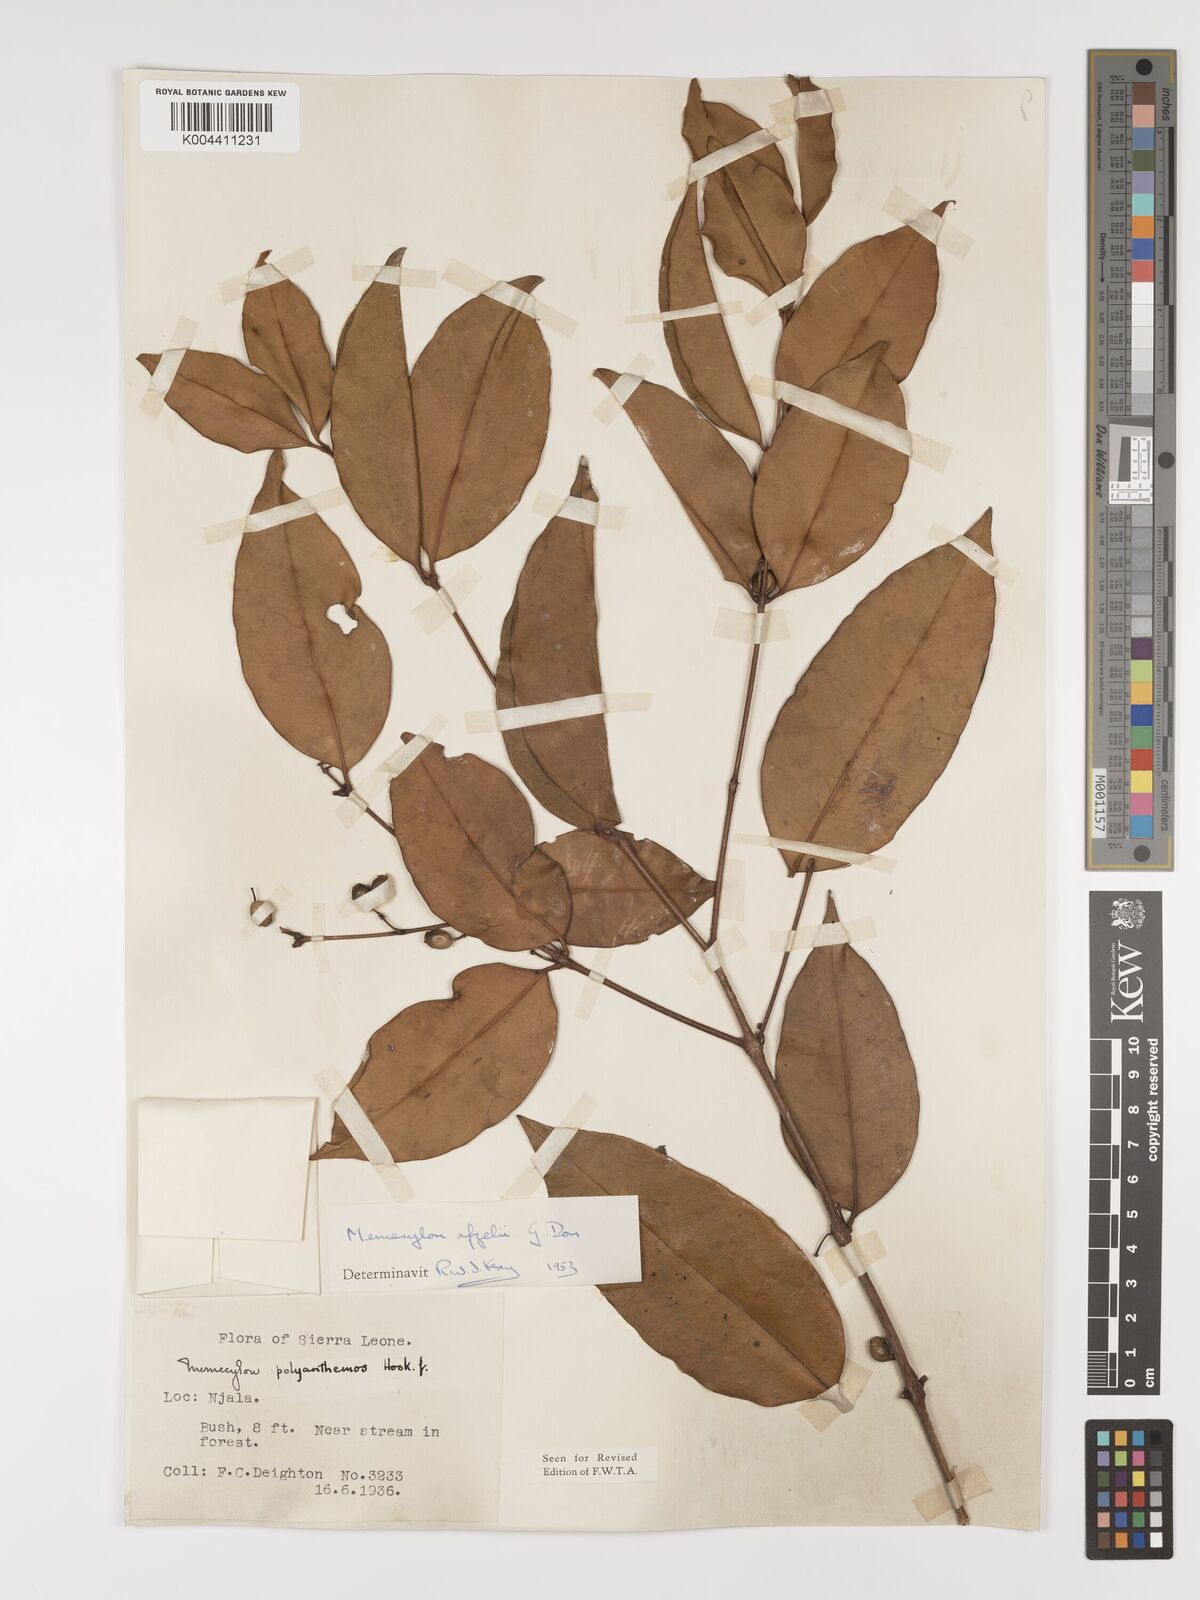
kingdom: Plantae
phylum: Tracheophyta
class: Magnoliopsida
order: Myrtales
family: Melastomataceae
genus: Memecylon
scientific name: Memecylon afzelii
